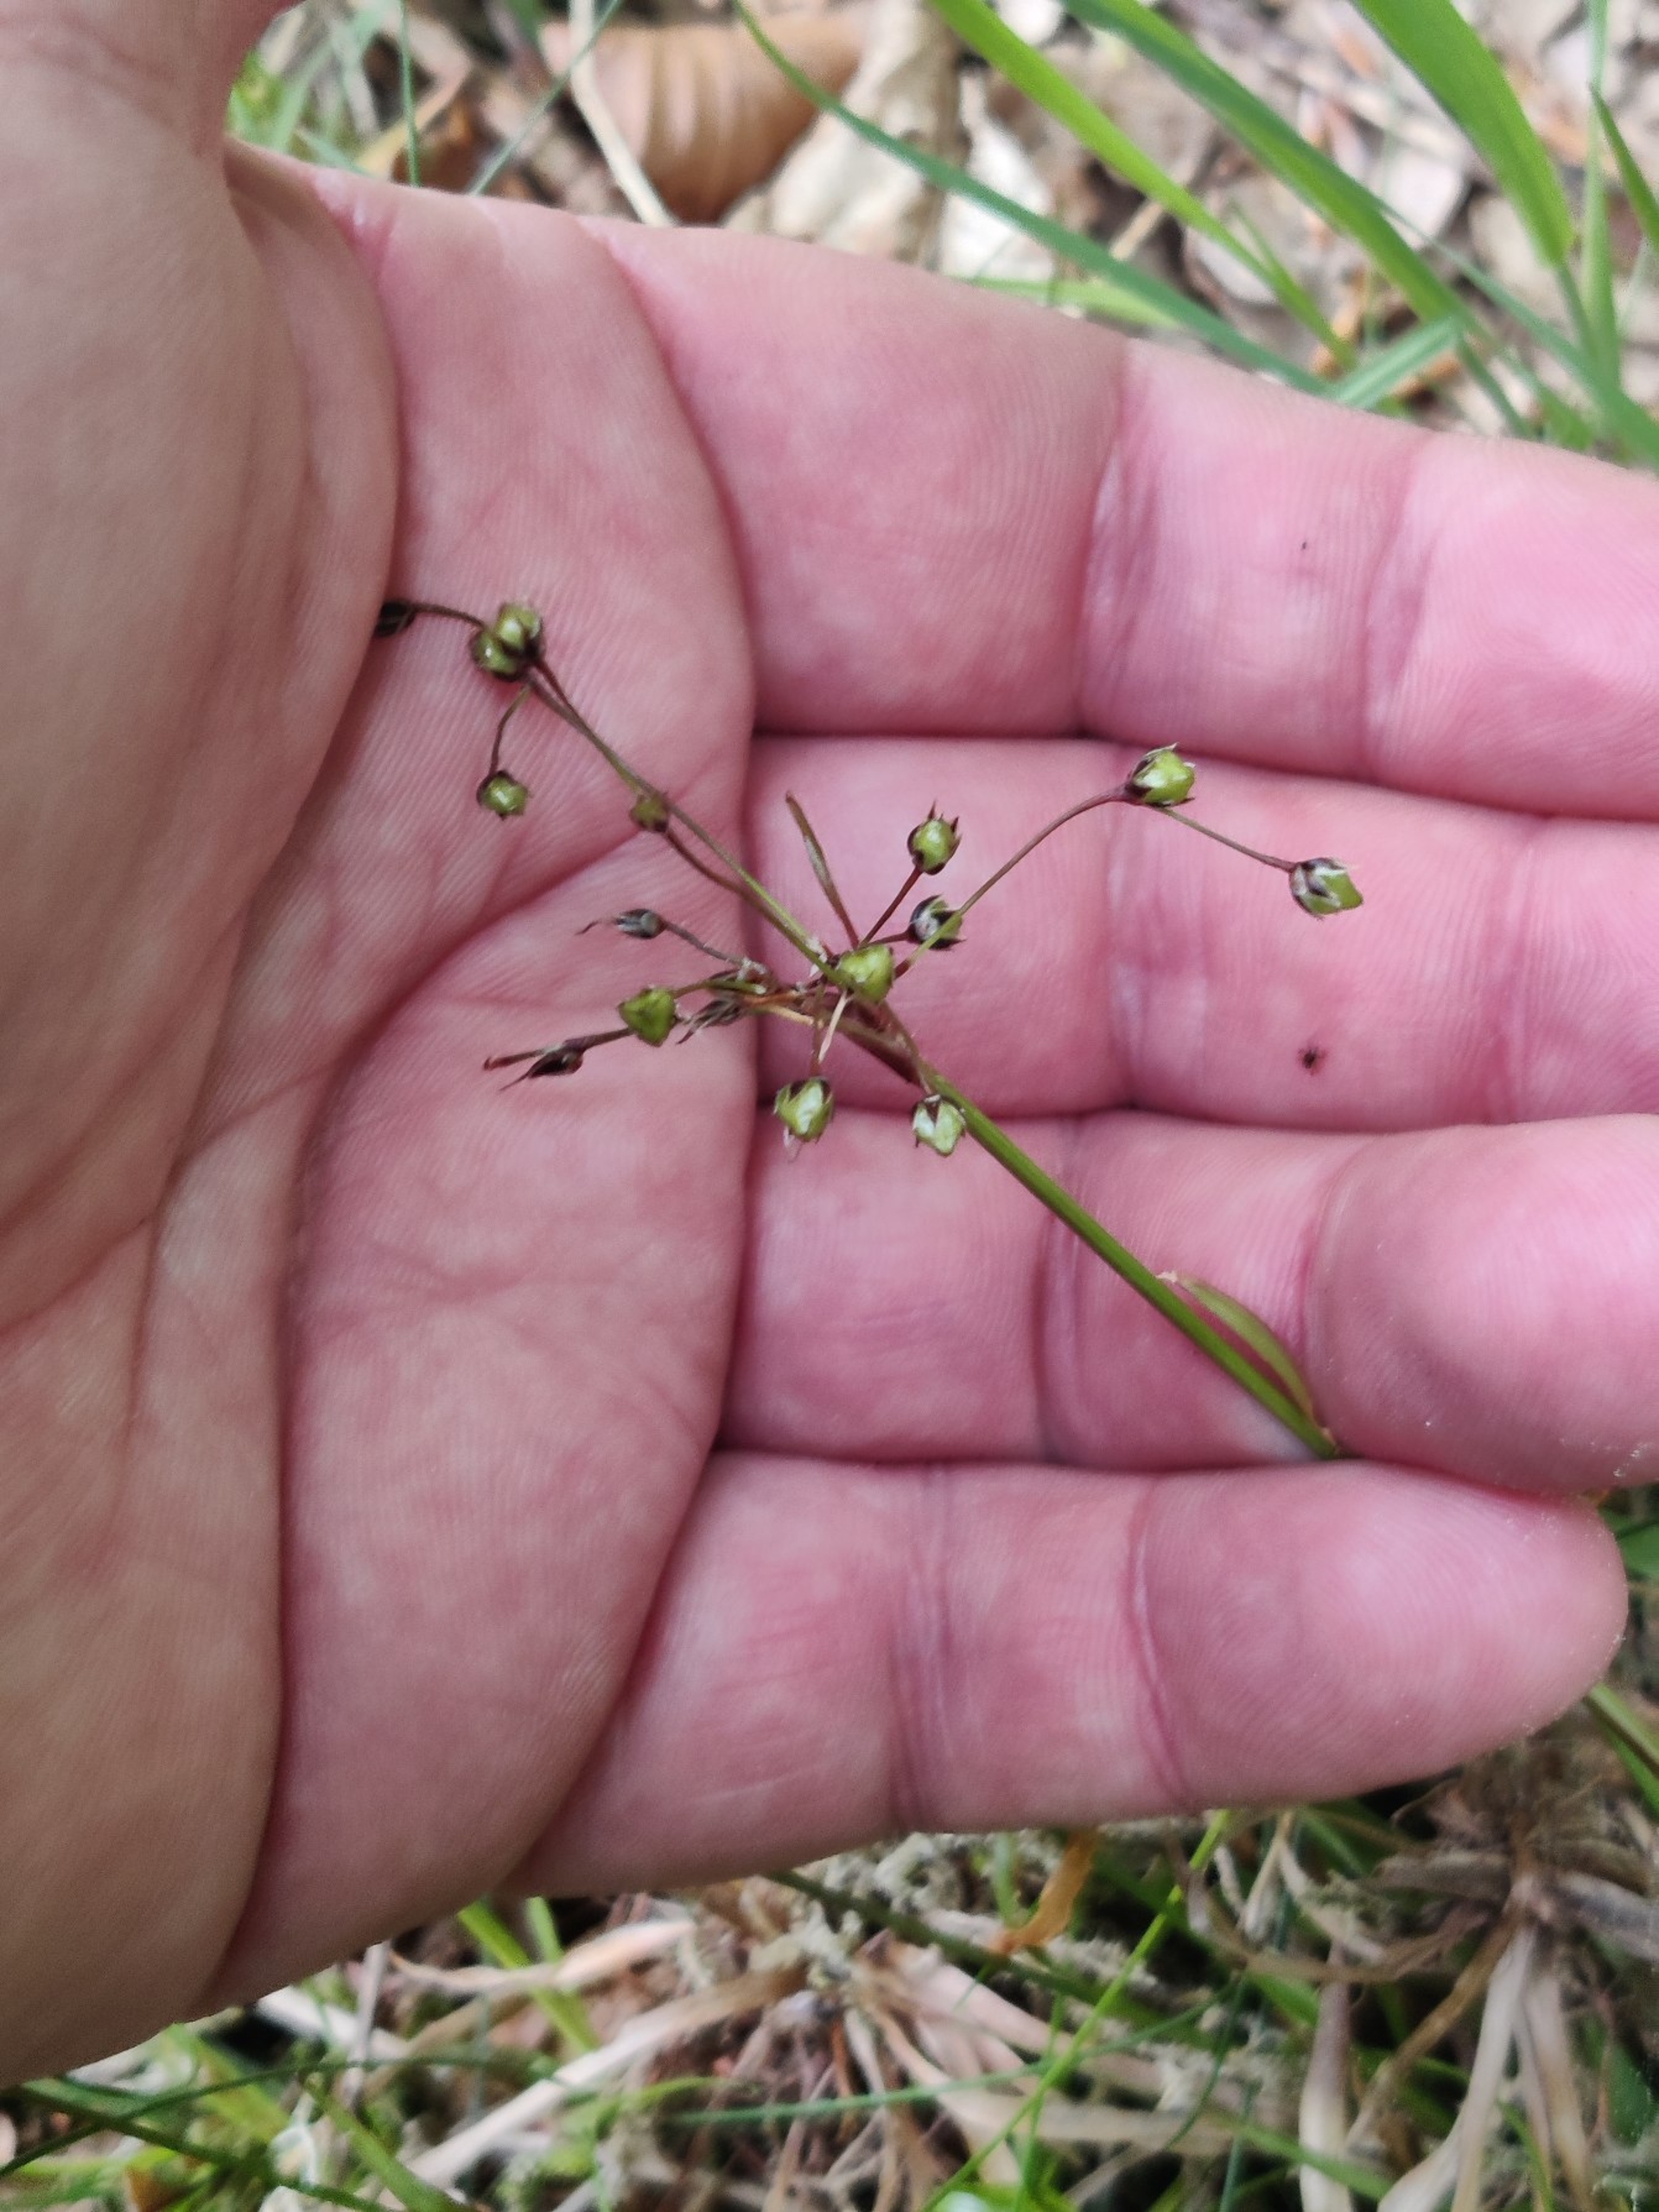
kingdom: Plantae
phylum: Tracheophyta
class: Liliopsida
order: Poales
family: Juncaceae
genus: Luzula
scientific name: Luzula pilosa
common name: Håret frytle
